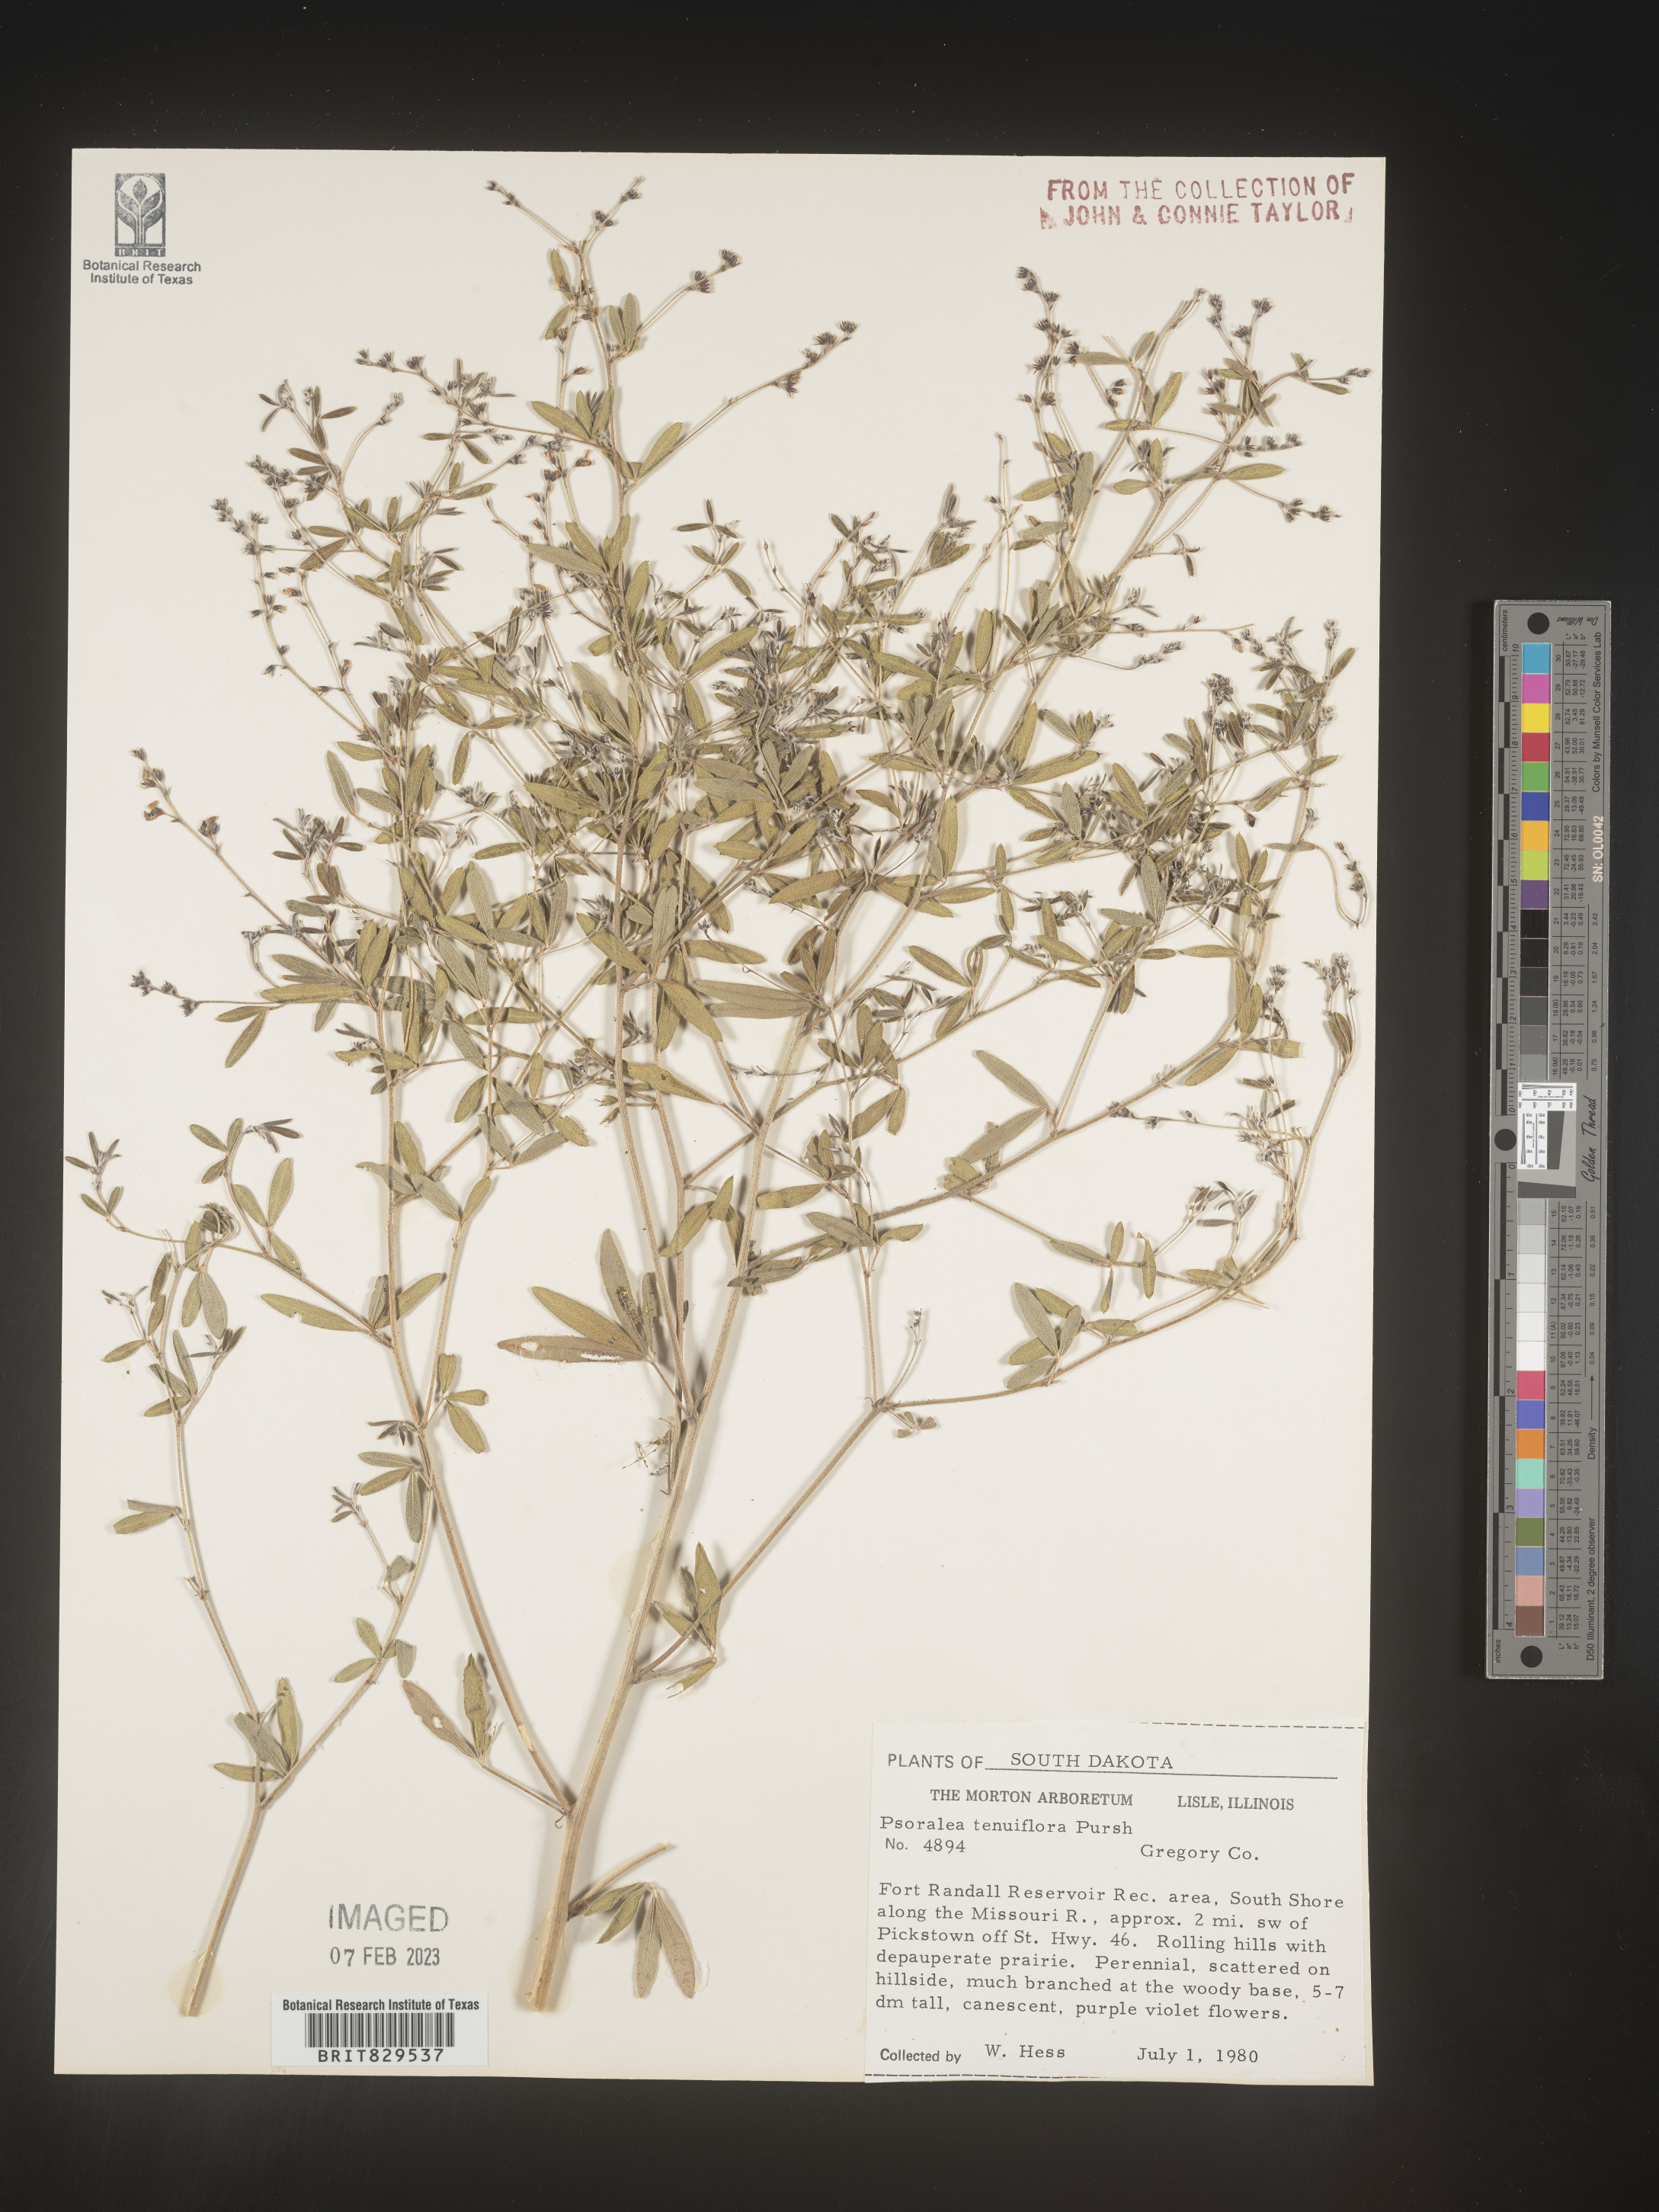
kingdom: Plantae
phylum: Tracheophyta
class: Magnoliopsida
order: Fabales
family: Fabaceae
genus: Pediomelum
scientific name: Pediomelum tenuiflorum
